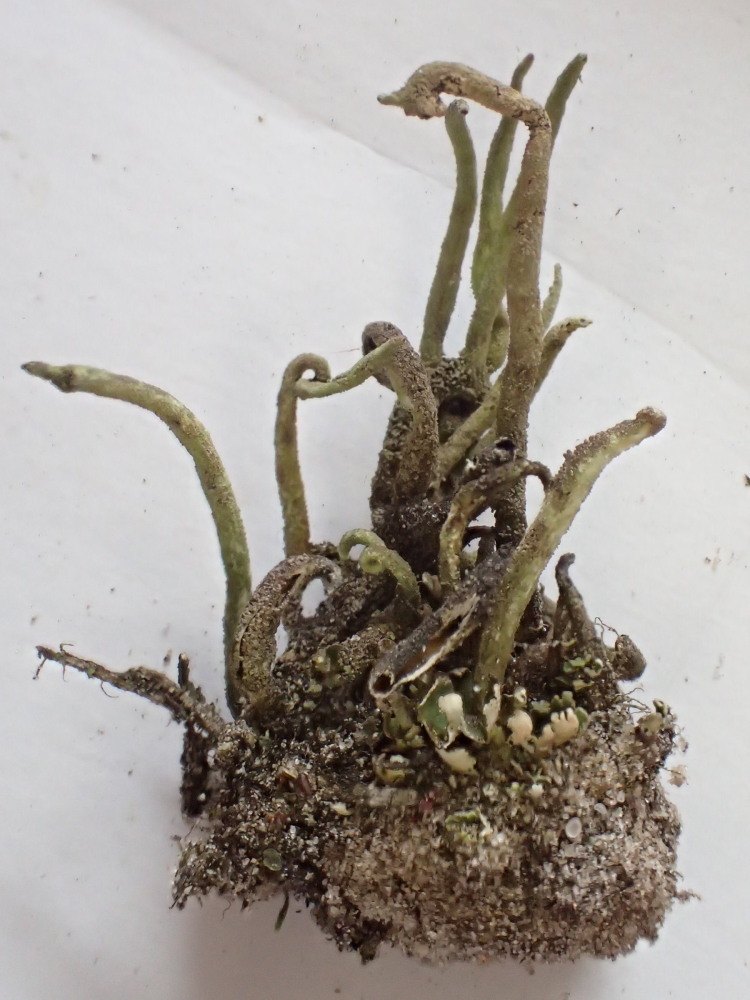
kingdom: Fungi
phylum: Ascomycota
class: Lecanoromycetes
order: Lecanorales
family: Cladoniaceae
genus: Cladonia
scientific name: Cladonia subulata
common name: spids bægerlav
